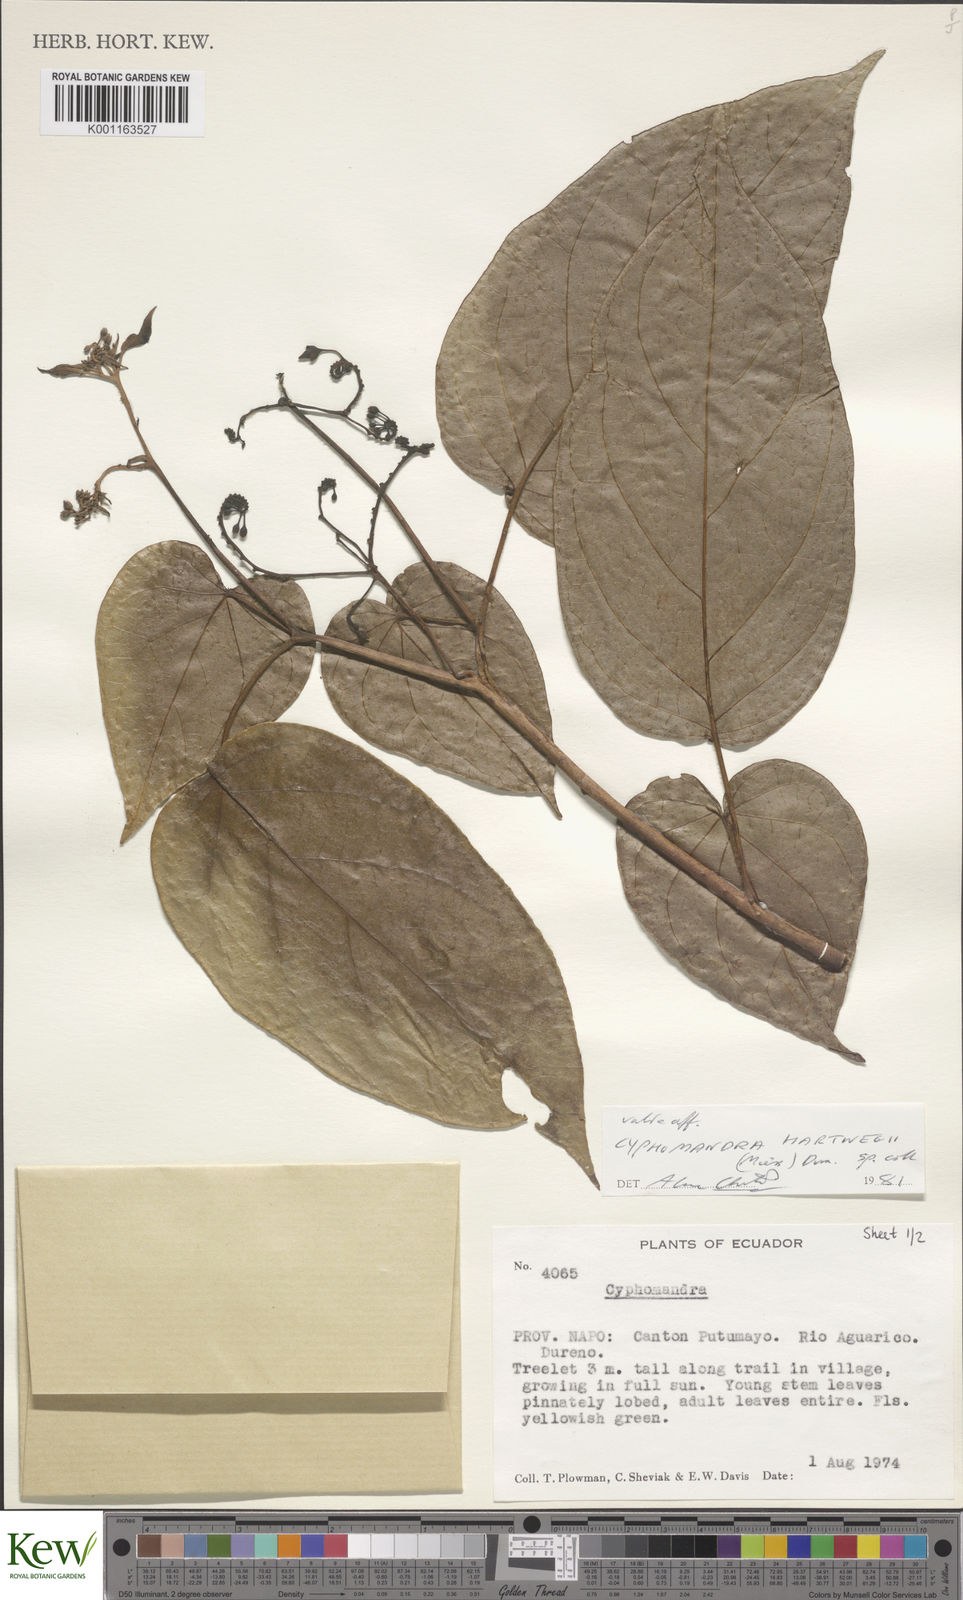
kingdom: Plantae
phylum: Tracheophyta
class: Magnoliopsida
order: Solanales
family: Solanaceae
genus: Solanum
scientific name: Solanum splendens
